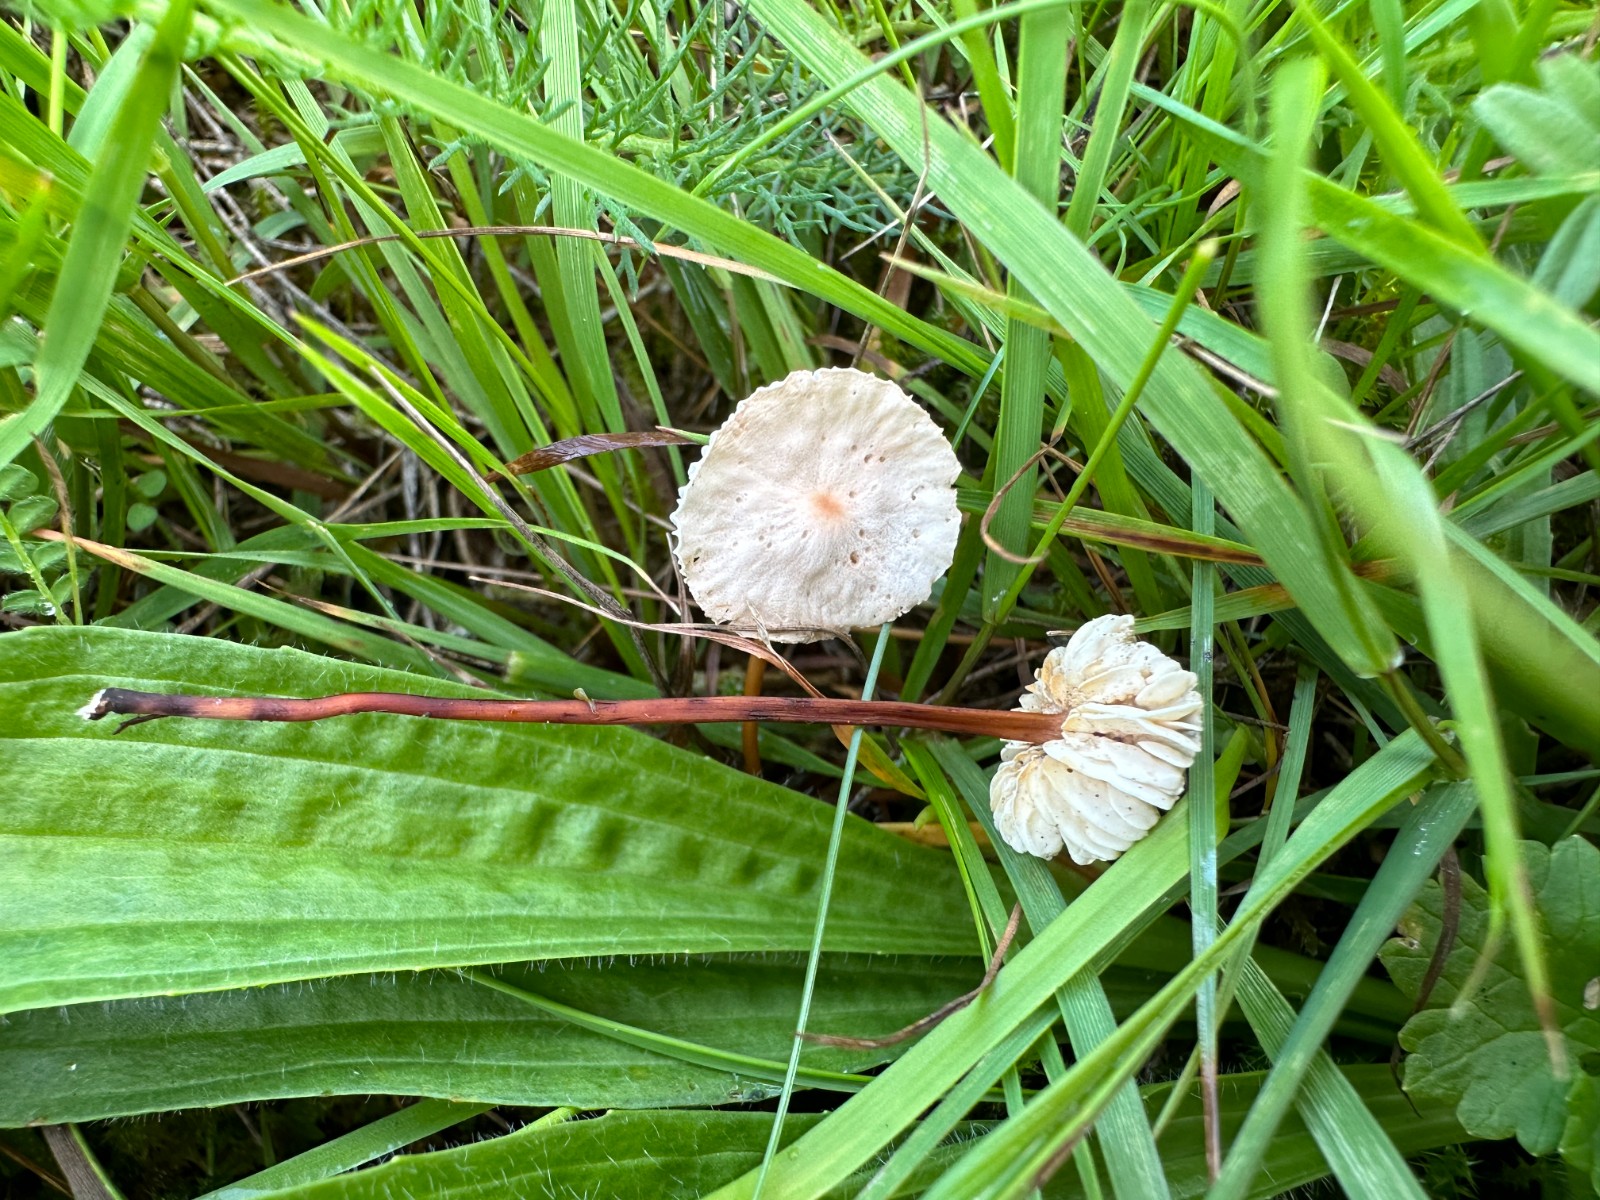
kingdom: Fungi
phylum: Basidiomycota
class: Agaricomycetes
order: Agaricales
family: Omphalotaceae
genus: Mycetinis
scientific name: Mycetinis scorodonius
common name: lille løghat
